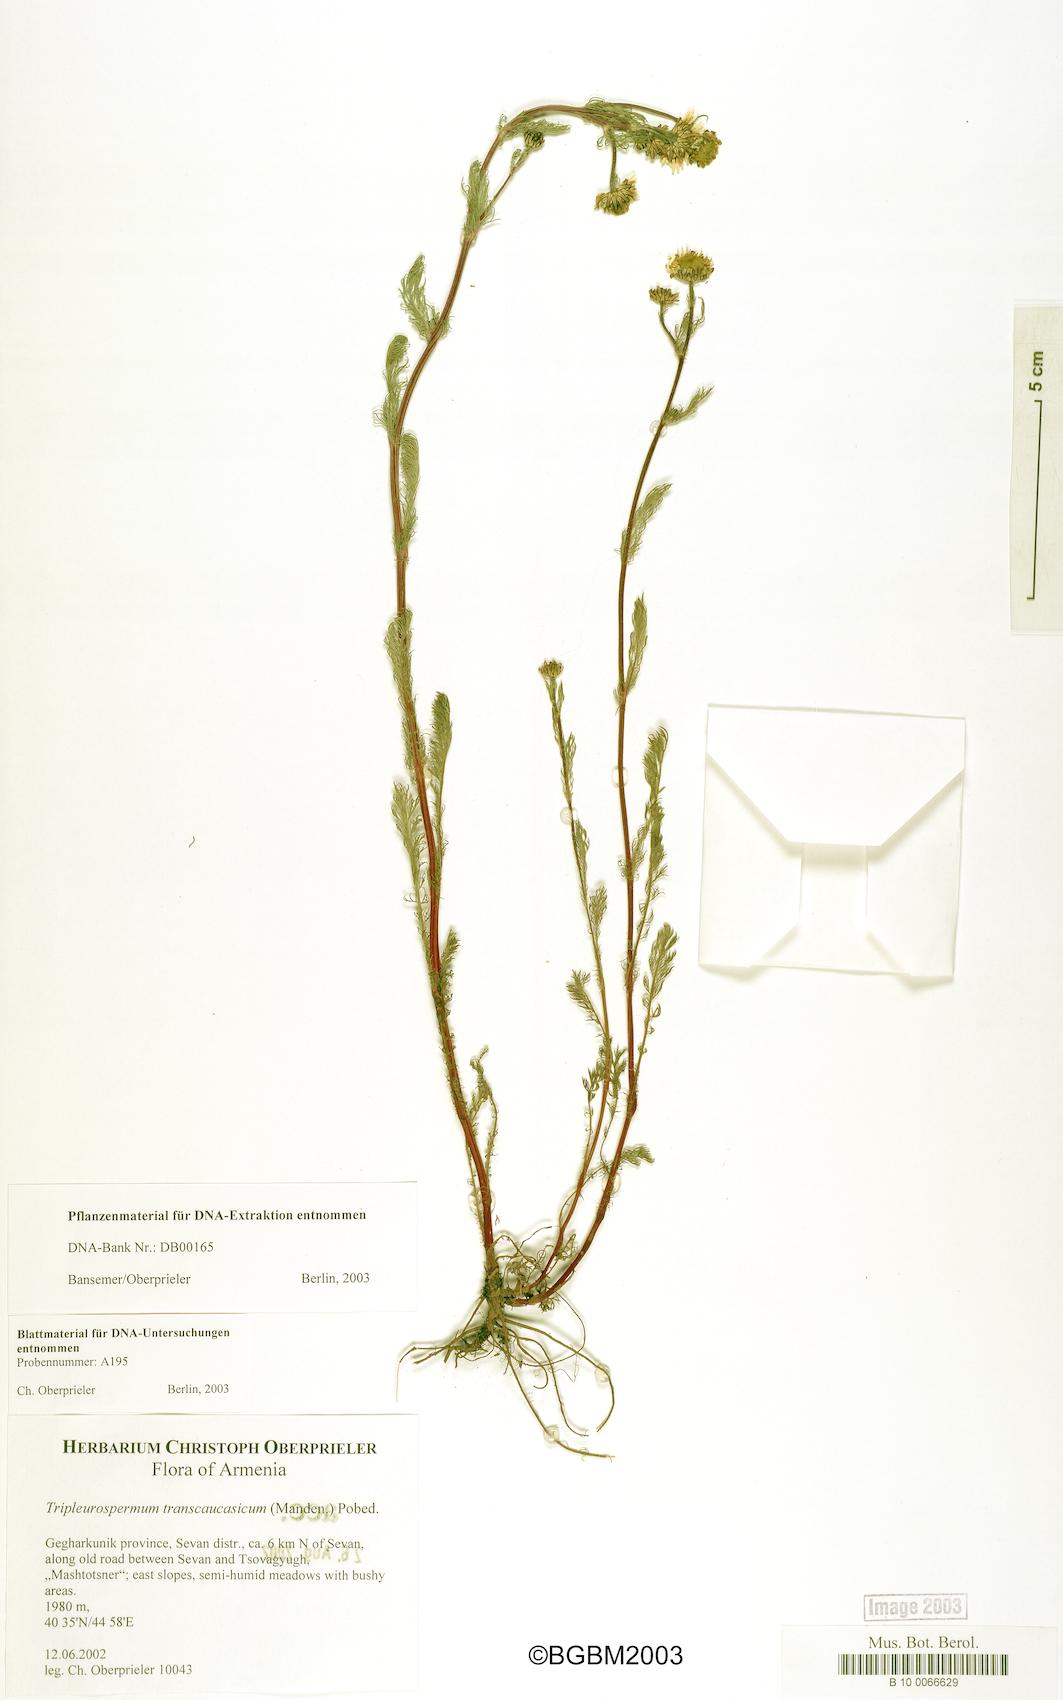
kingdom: Plantae
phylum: Tracheophyta
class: Magnoliopsida
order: Asterales
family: Asteraceae
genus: Tripleurospermum
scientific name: Tripleurospermum transcaucasicum
